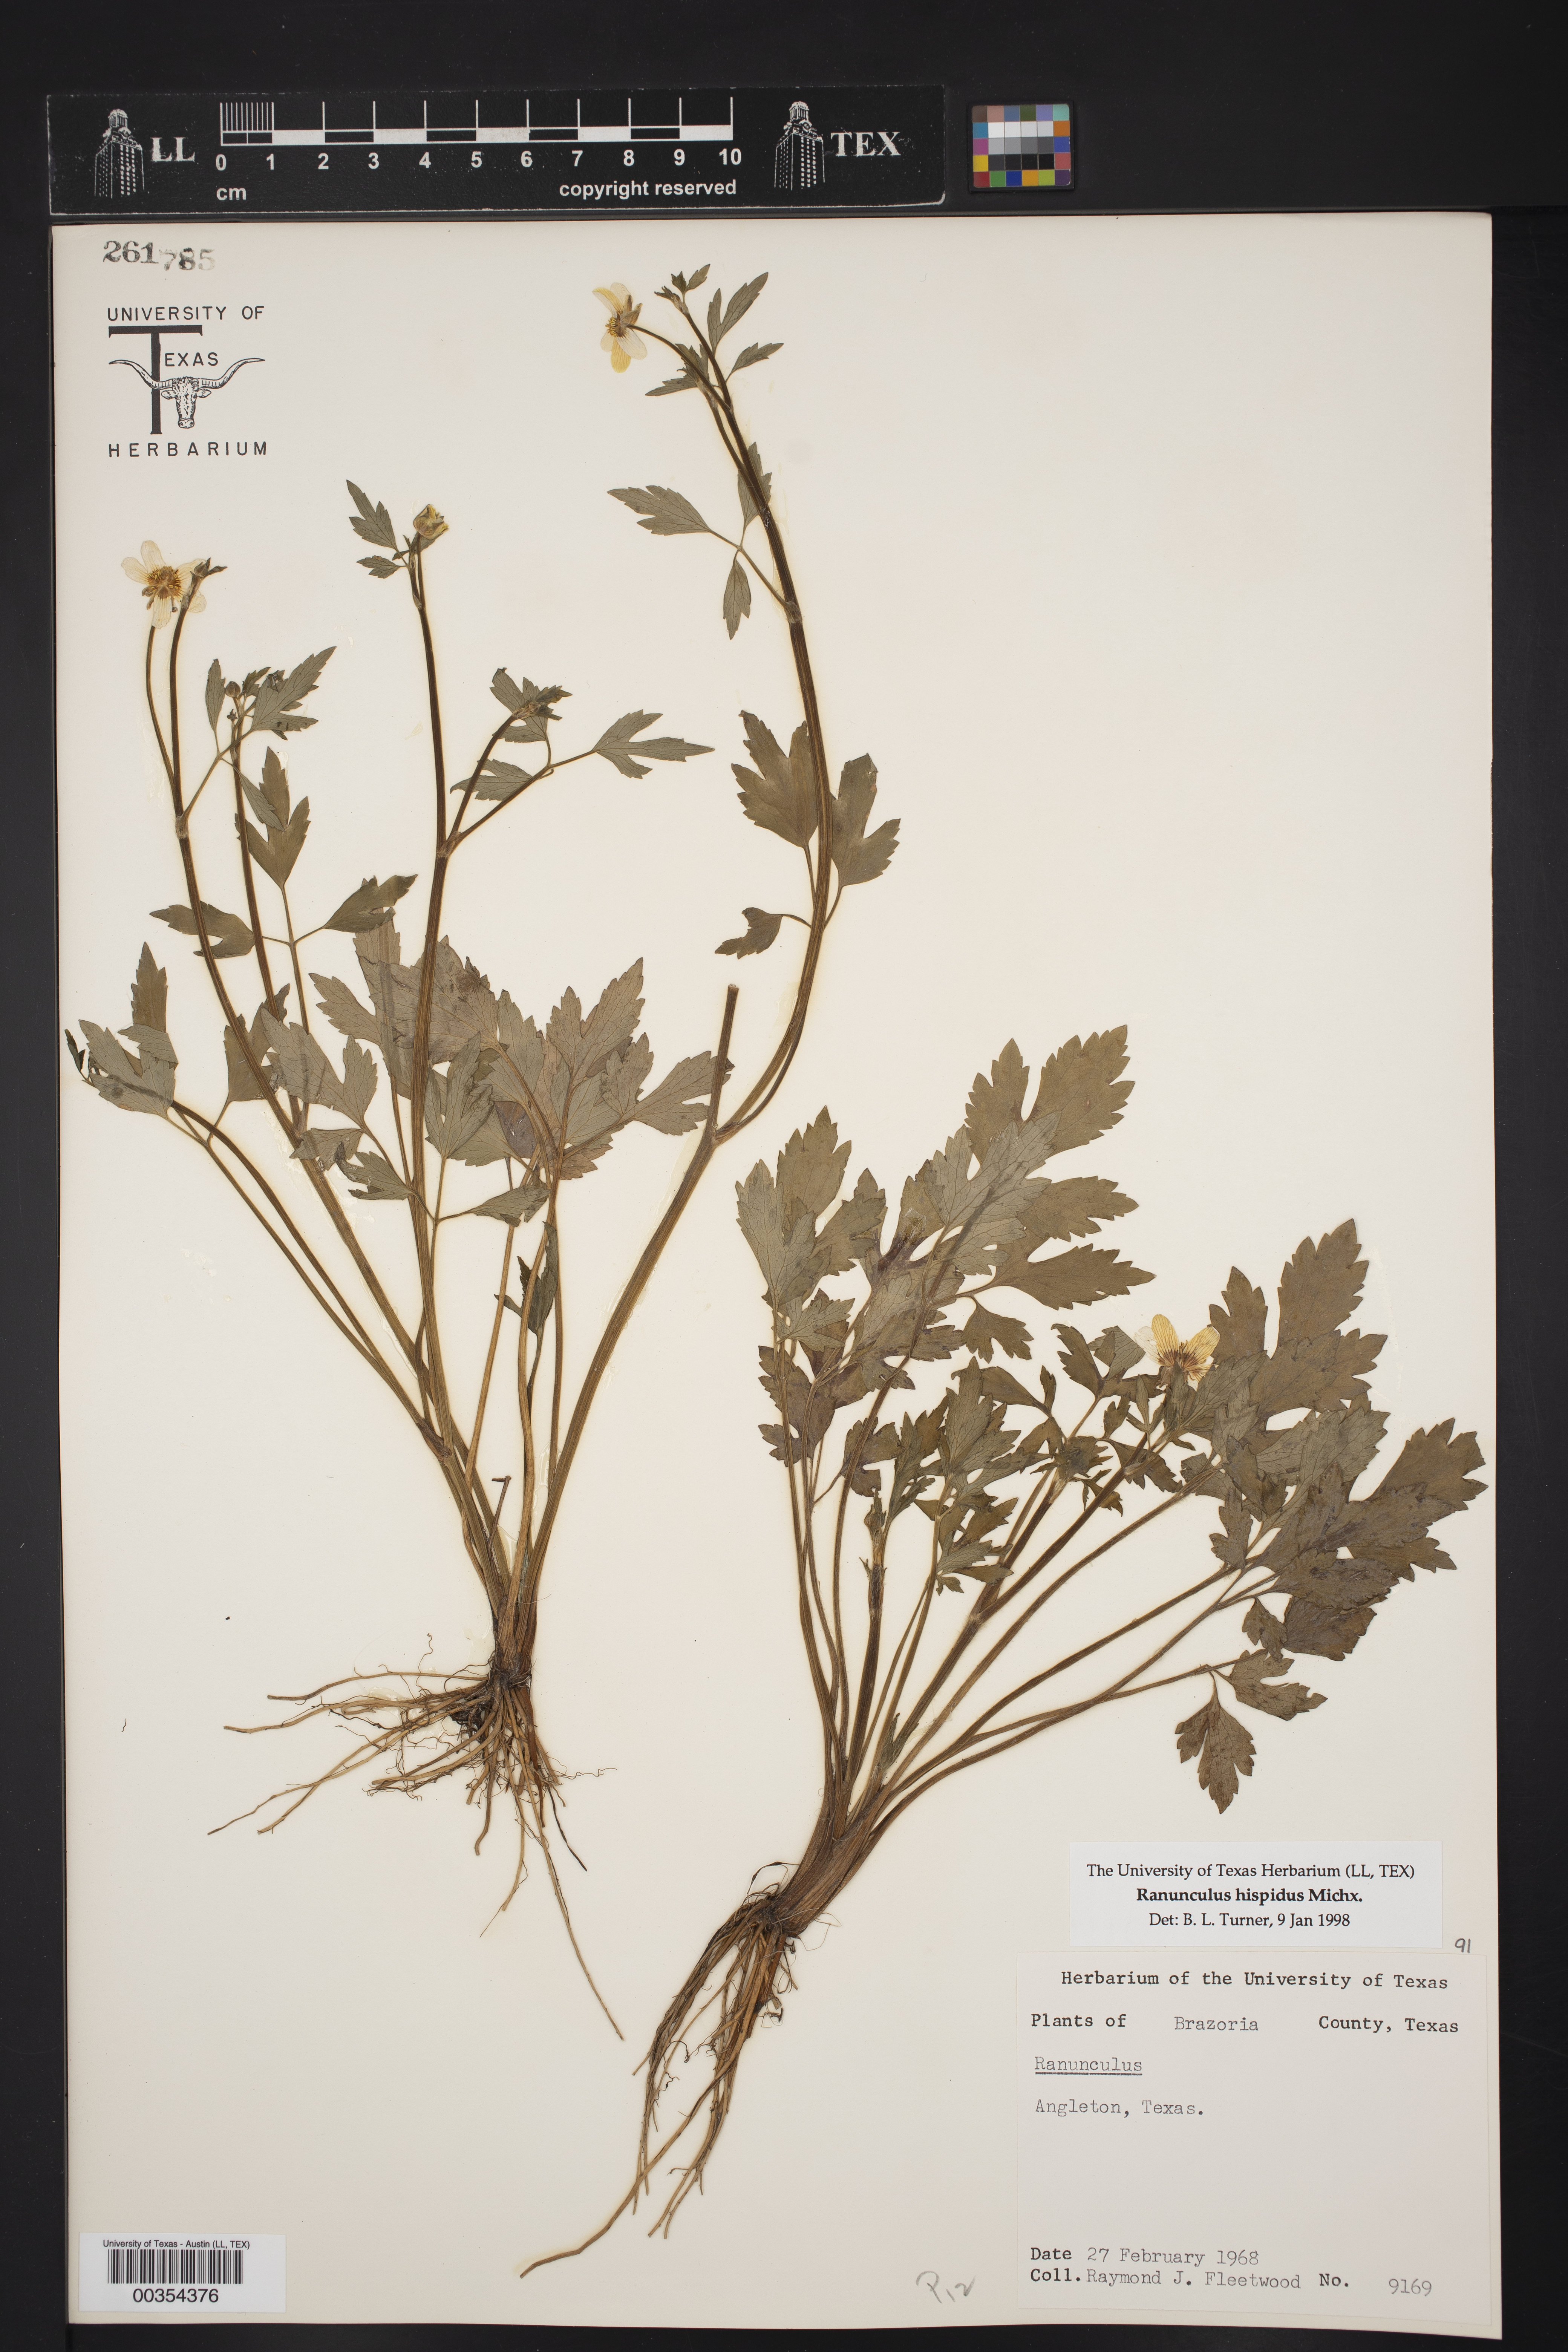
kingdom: Plantae
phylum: Tracheophyta
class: Magnoliopsida
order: Ranunculales
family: Ranunculaceae
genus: Ranunculus
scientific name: Ranunculus hispidus
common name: Bristly buttercup
